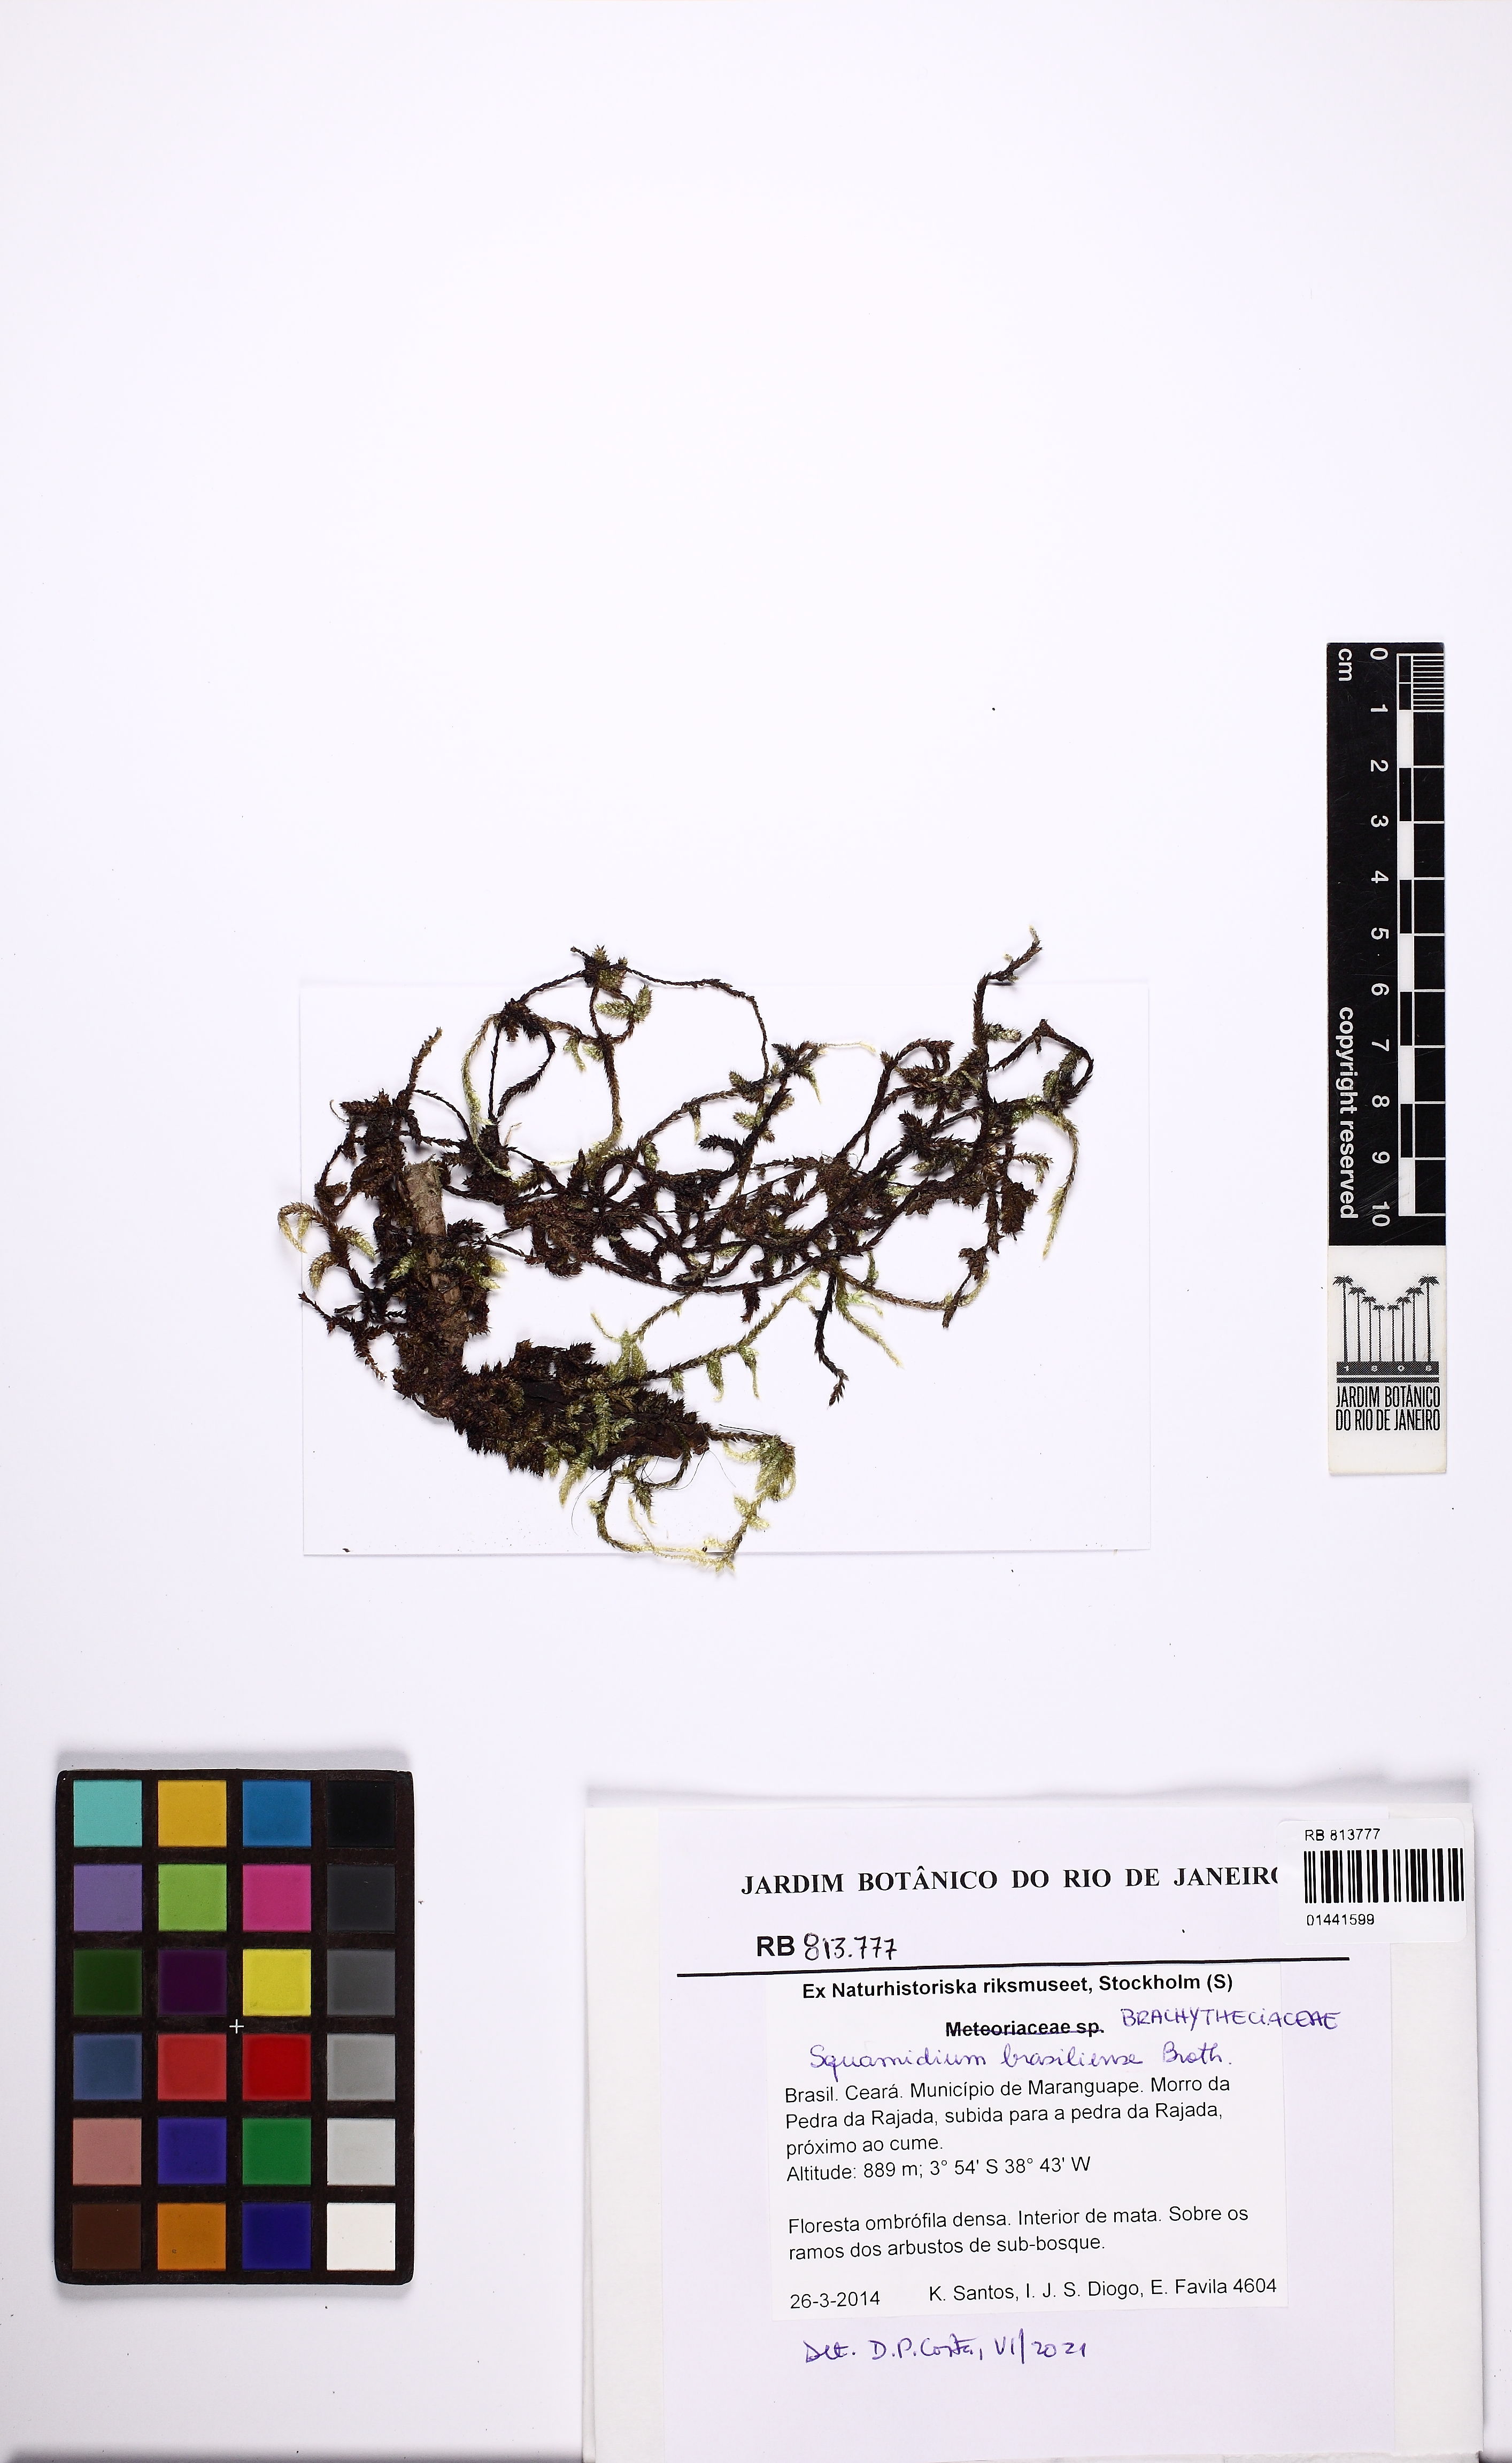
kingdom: Plantae
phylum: Bryophyta
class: Bryopsida
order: Hypnales
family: Brachytheciaceae
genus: Squamidium
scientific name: Squamidium brasiliense
